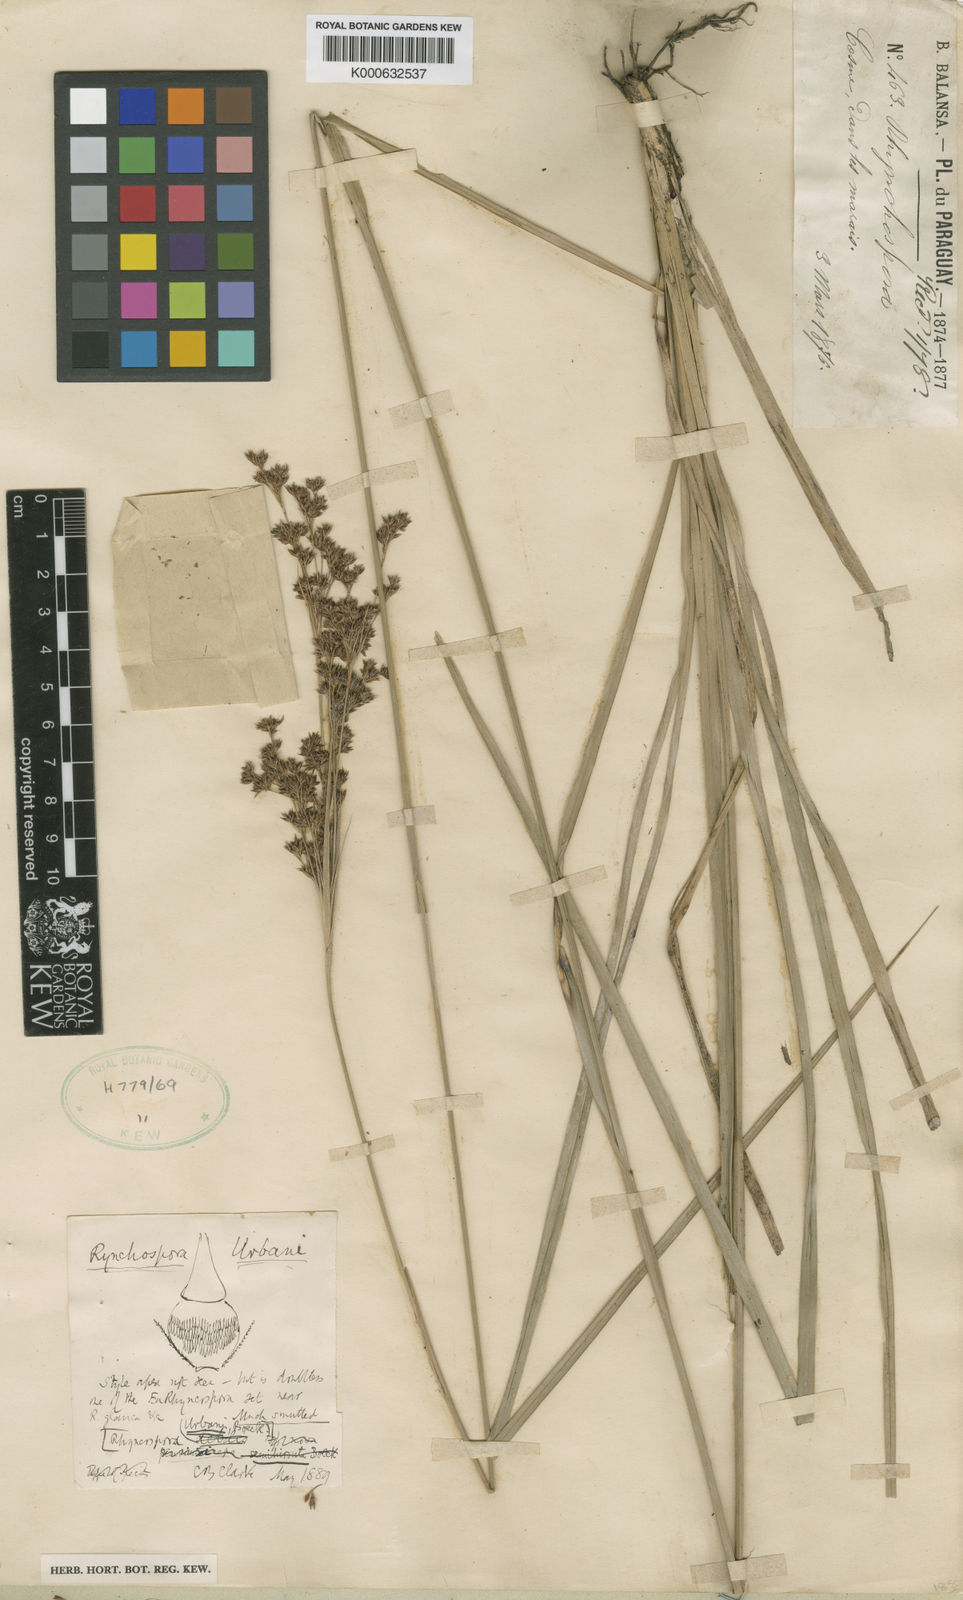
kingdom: Plantae
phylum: Tracheophyta
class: Liliopsida
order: Poales
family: Cyperaceae
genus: Rhynchospora
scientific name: Rhynchospora urbanii
